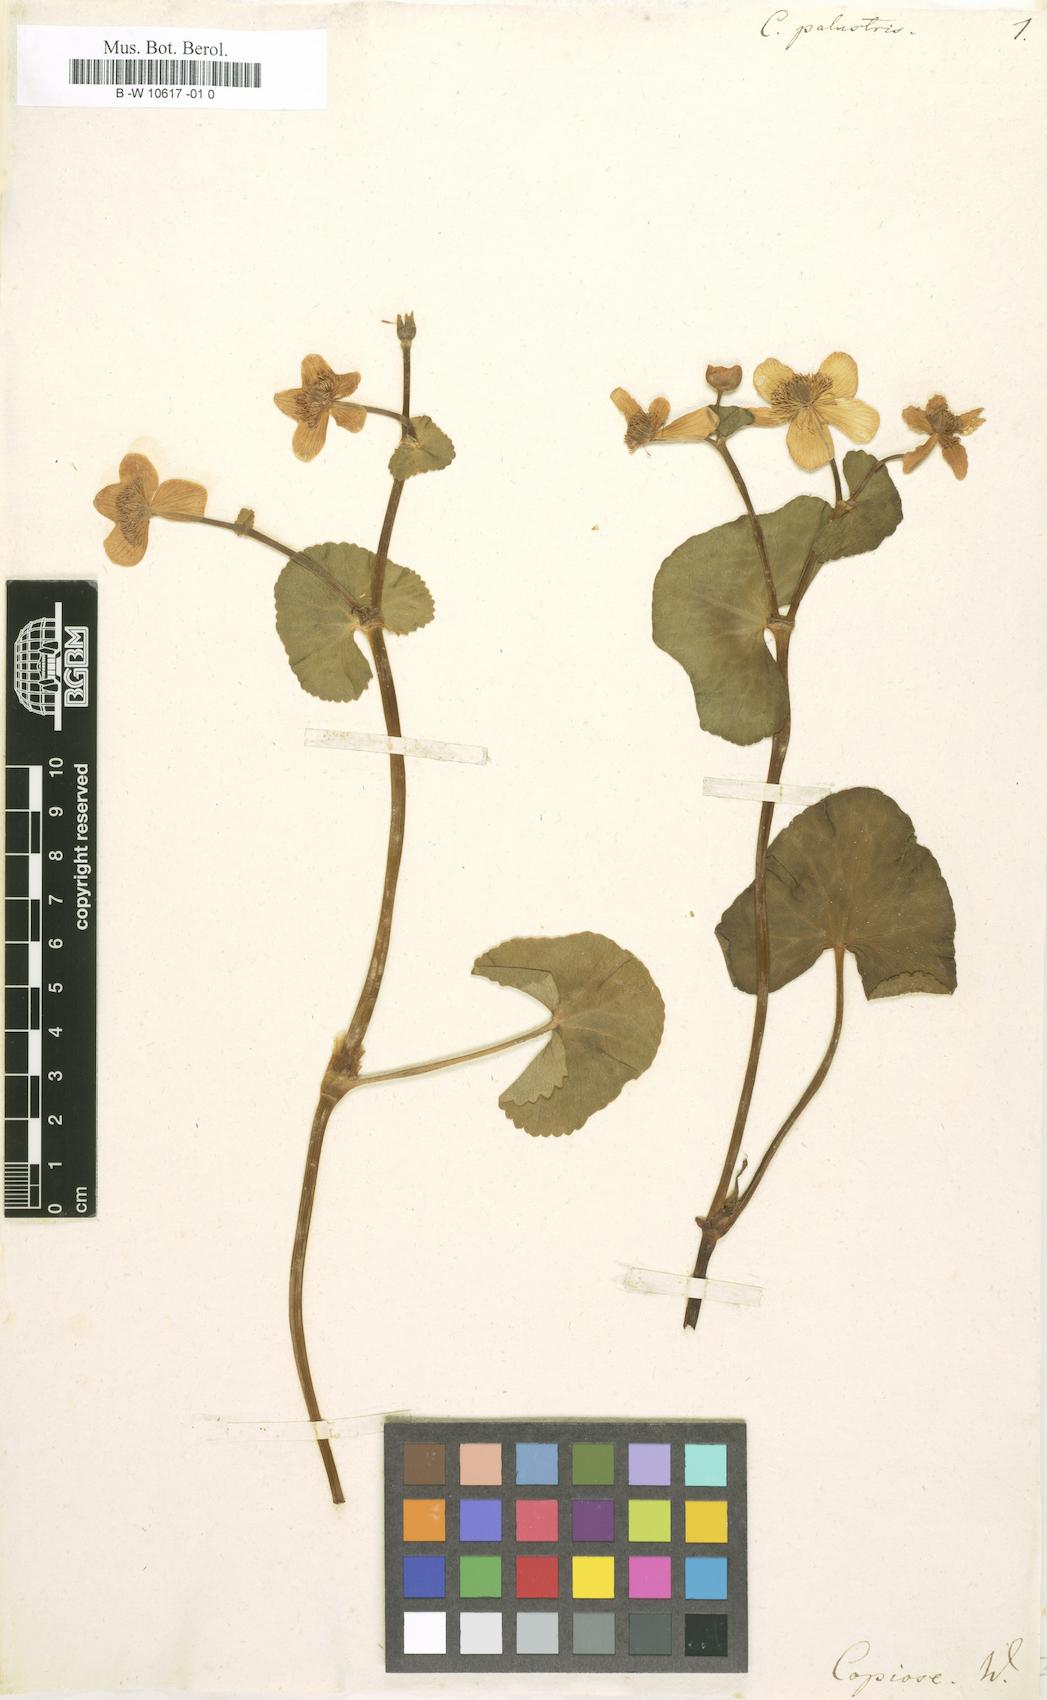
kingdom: Plantae
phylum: Tracheophyta
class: Magnoliopsida
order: Ranunculales
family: Ranunculaceae
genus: Caltha
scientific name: Caltha palustris
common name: Marsh marigold
